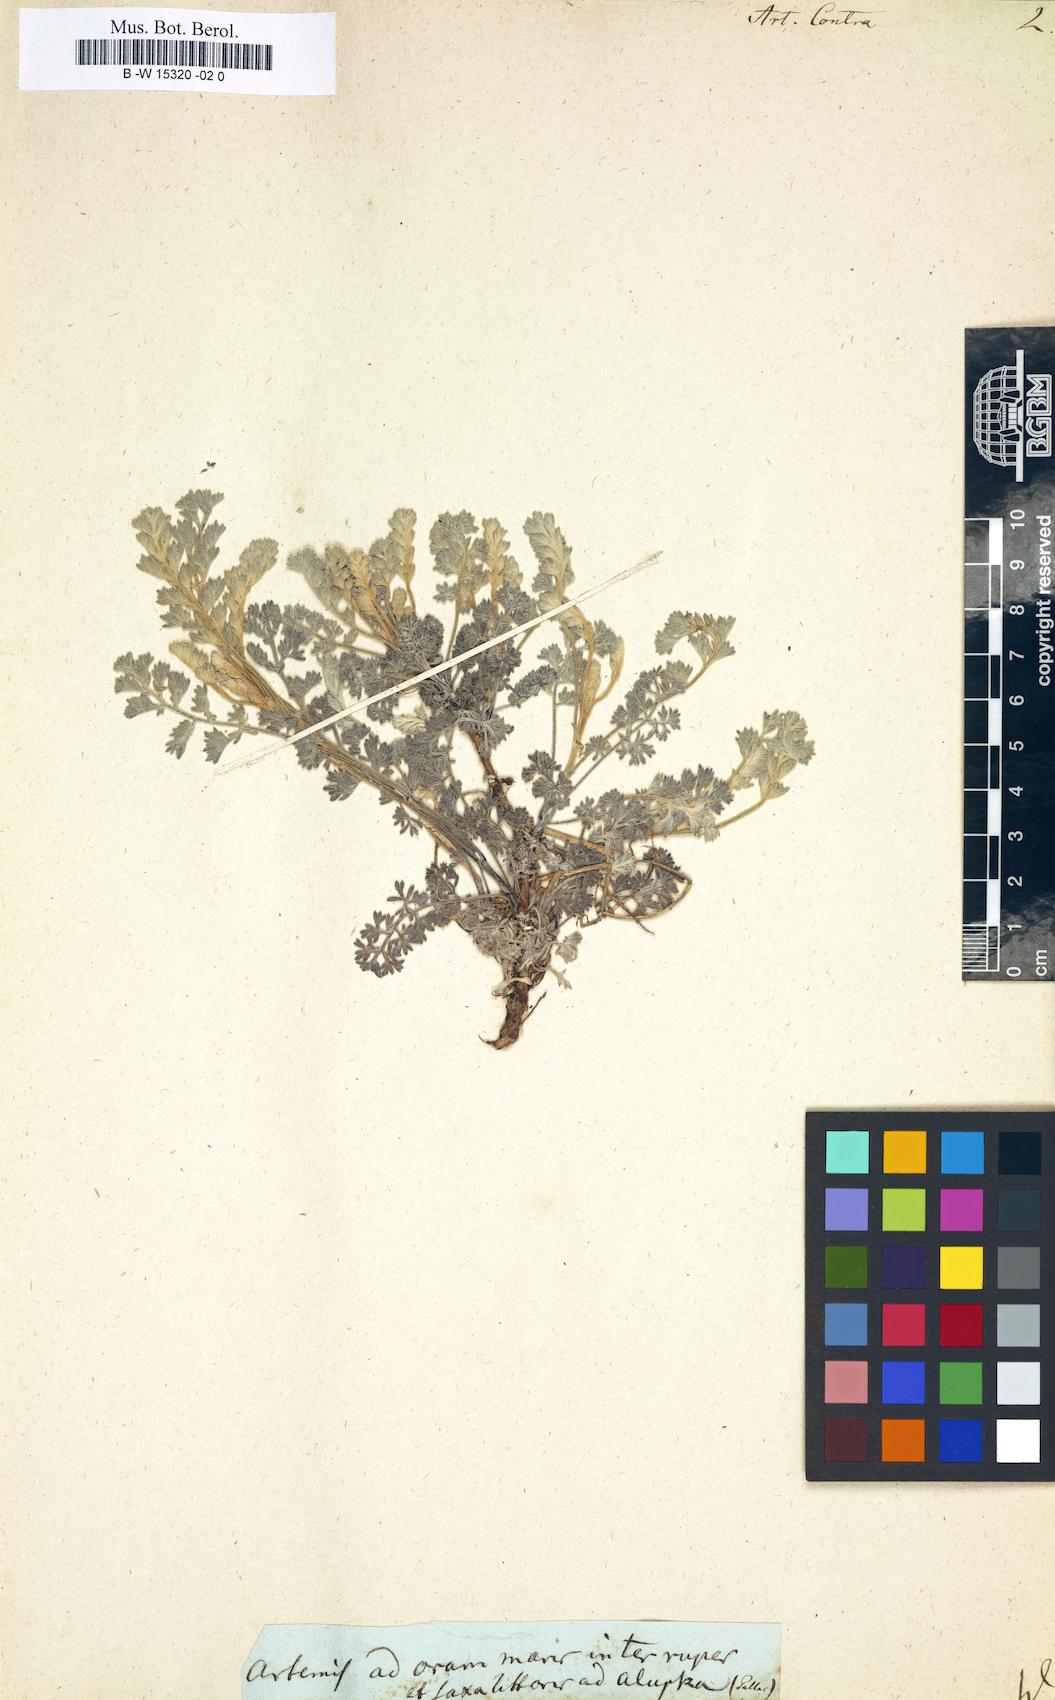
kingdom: Plantae
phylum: Tracheophyta
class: Magnoliopsida
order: Asterales
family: Asteraceae
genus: Artemisia
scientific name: Artemisia maritima
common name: Wormseed
